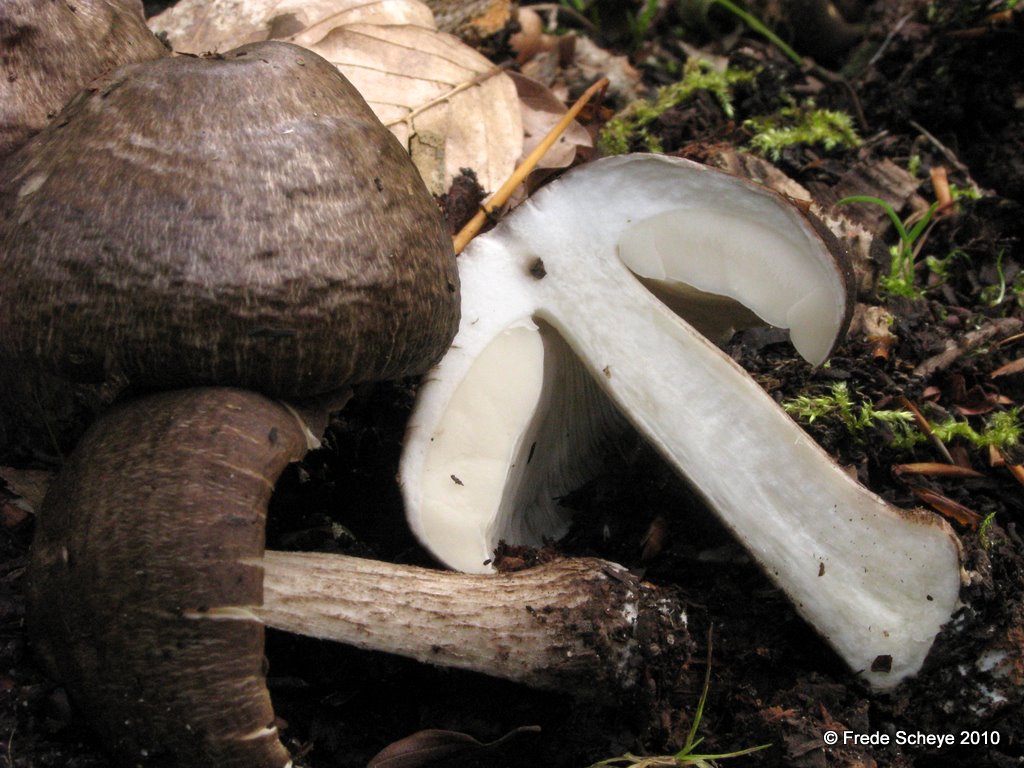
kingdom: Fungi
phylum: Basidiomycota
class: Agaricomycetes
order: Agaricales
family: Pluteaceae
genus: Pluteus
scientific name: Pluteus cervinus
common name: sodfarvet skærmhat
